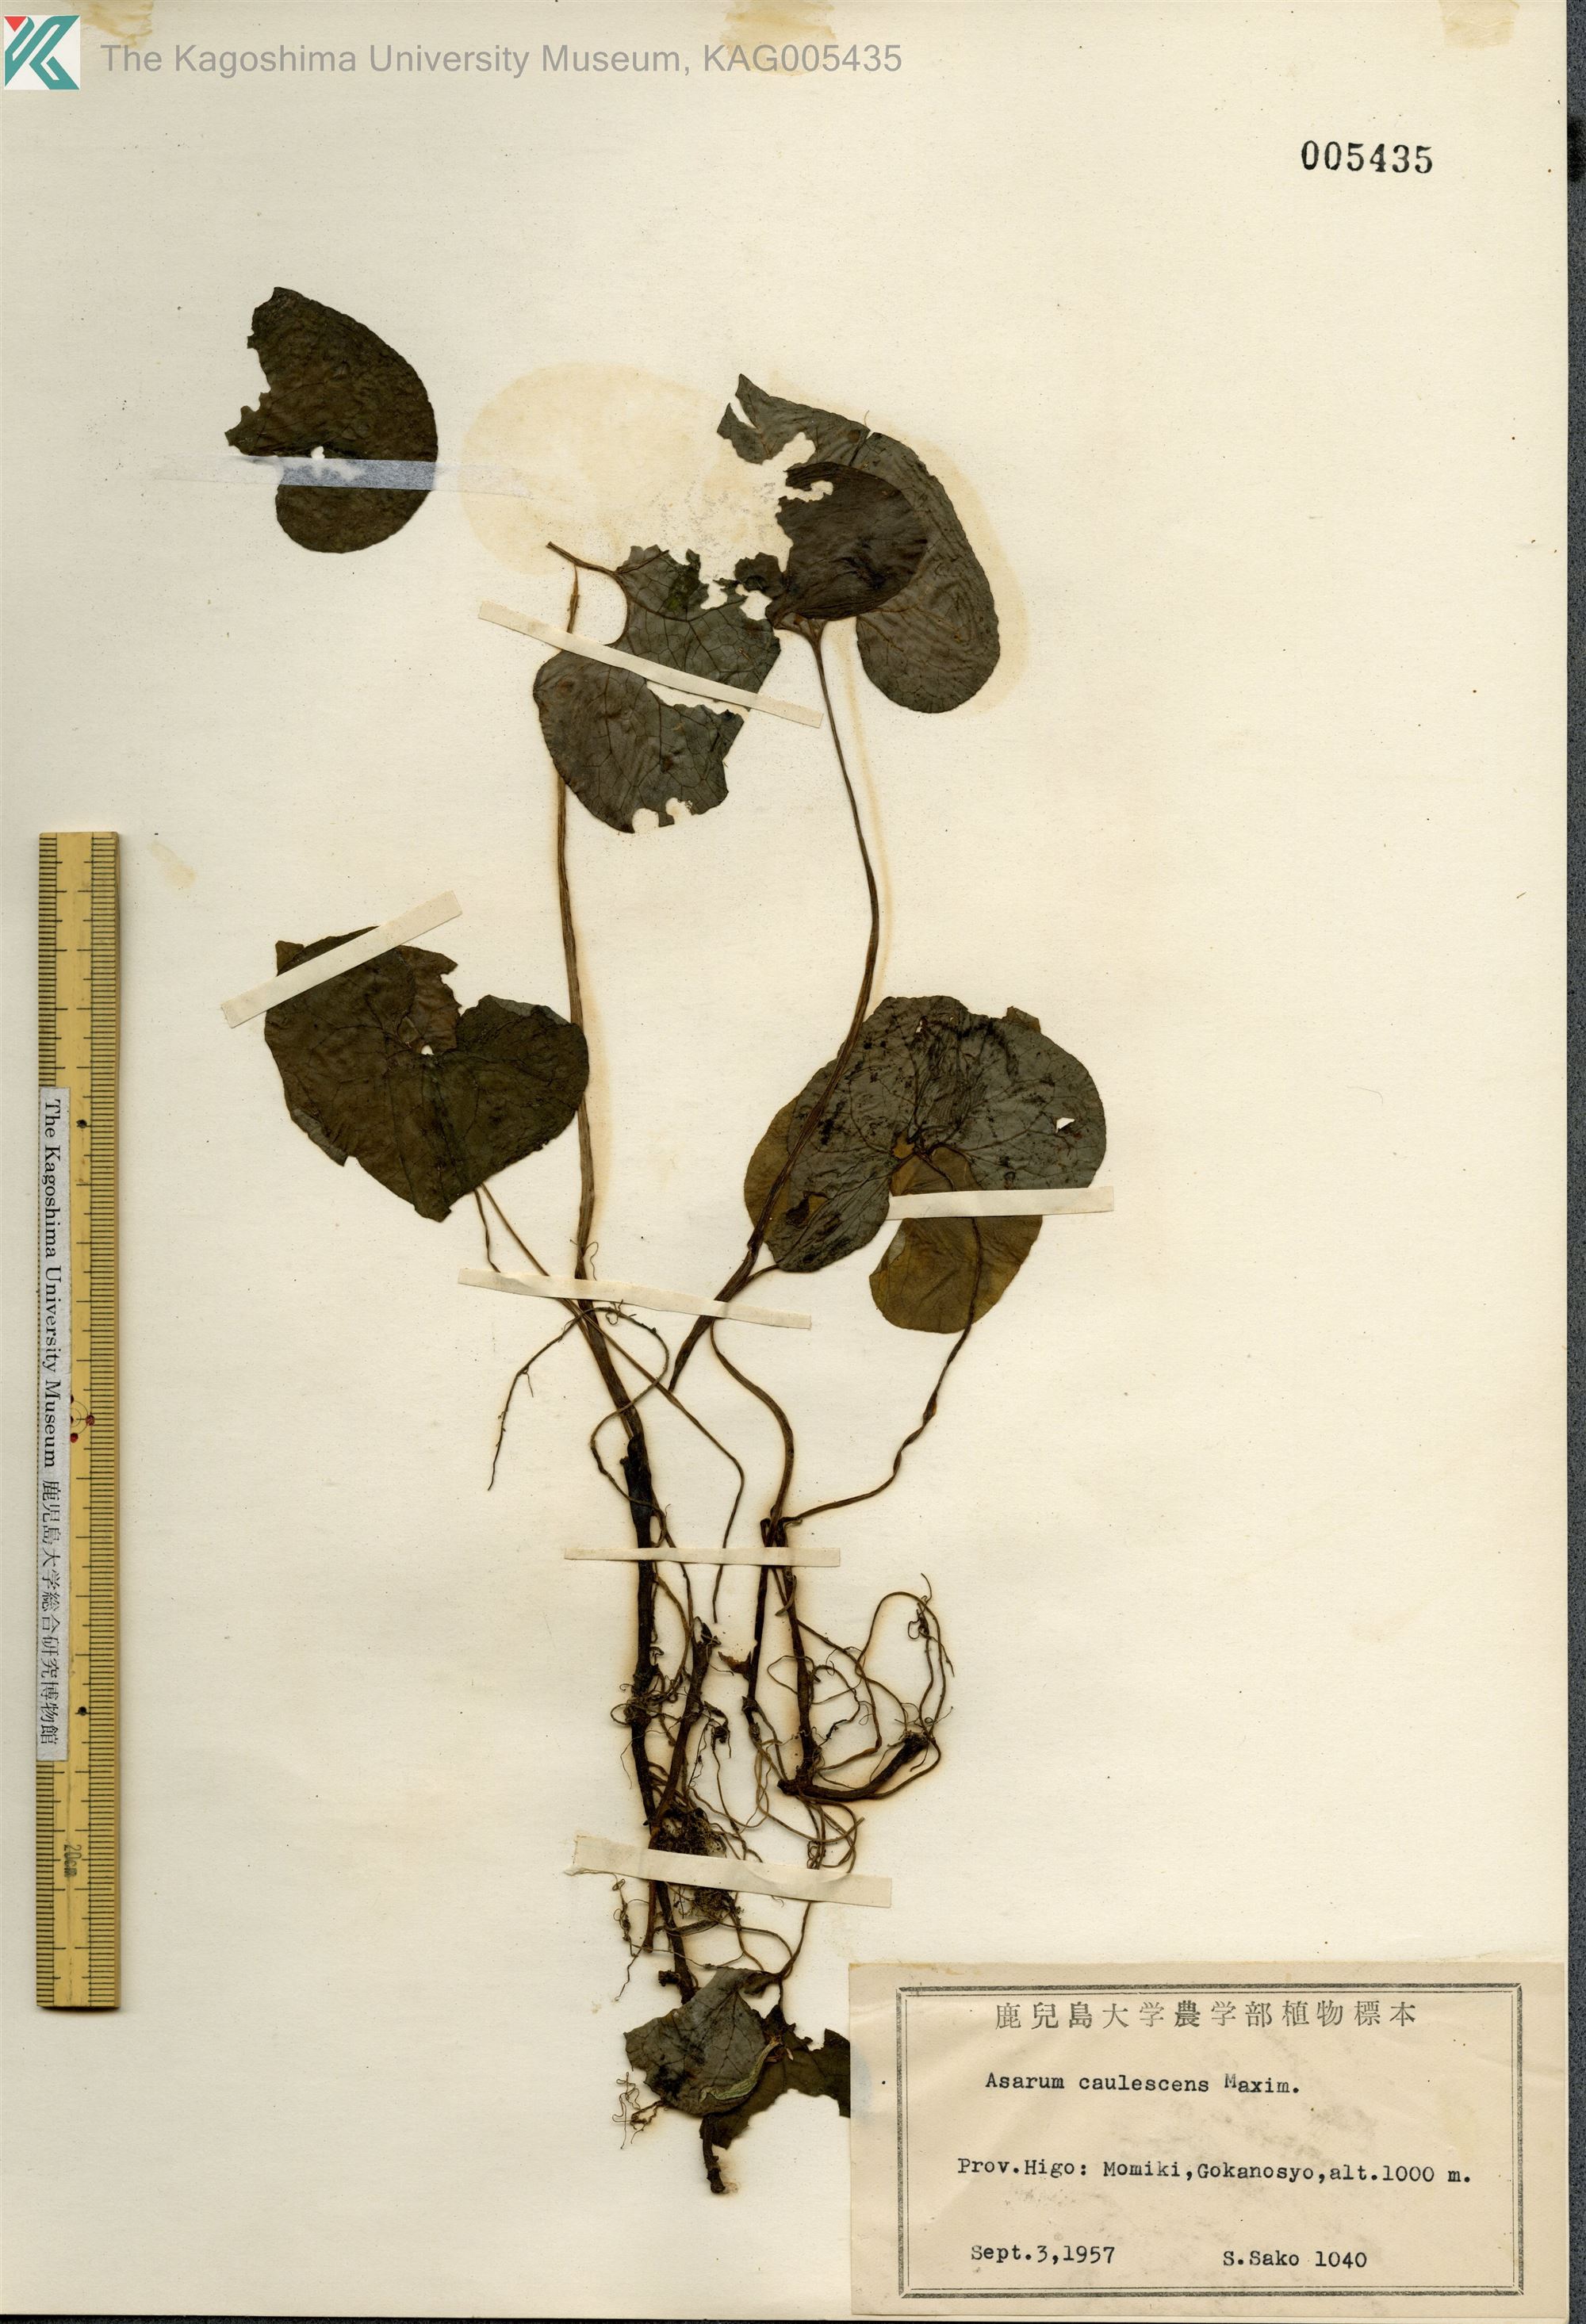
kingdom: Plantae
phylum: Tracheophyta
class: Magnoliopsida
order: Piperales
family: Aristolochiaceae
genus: Asarum
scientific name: Asarum caulescens
